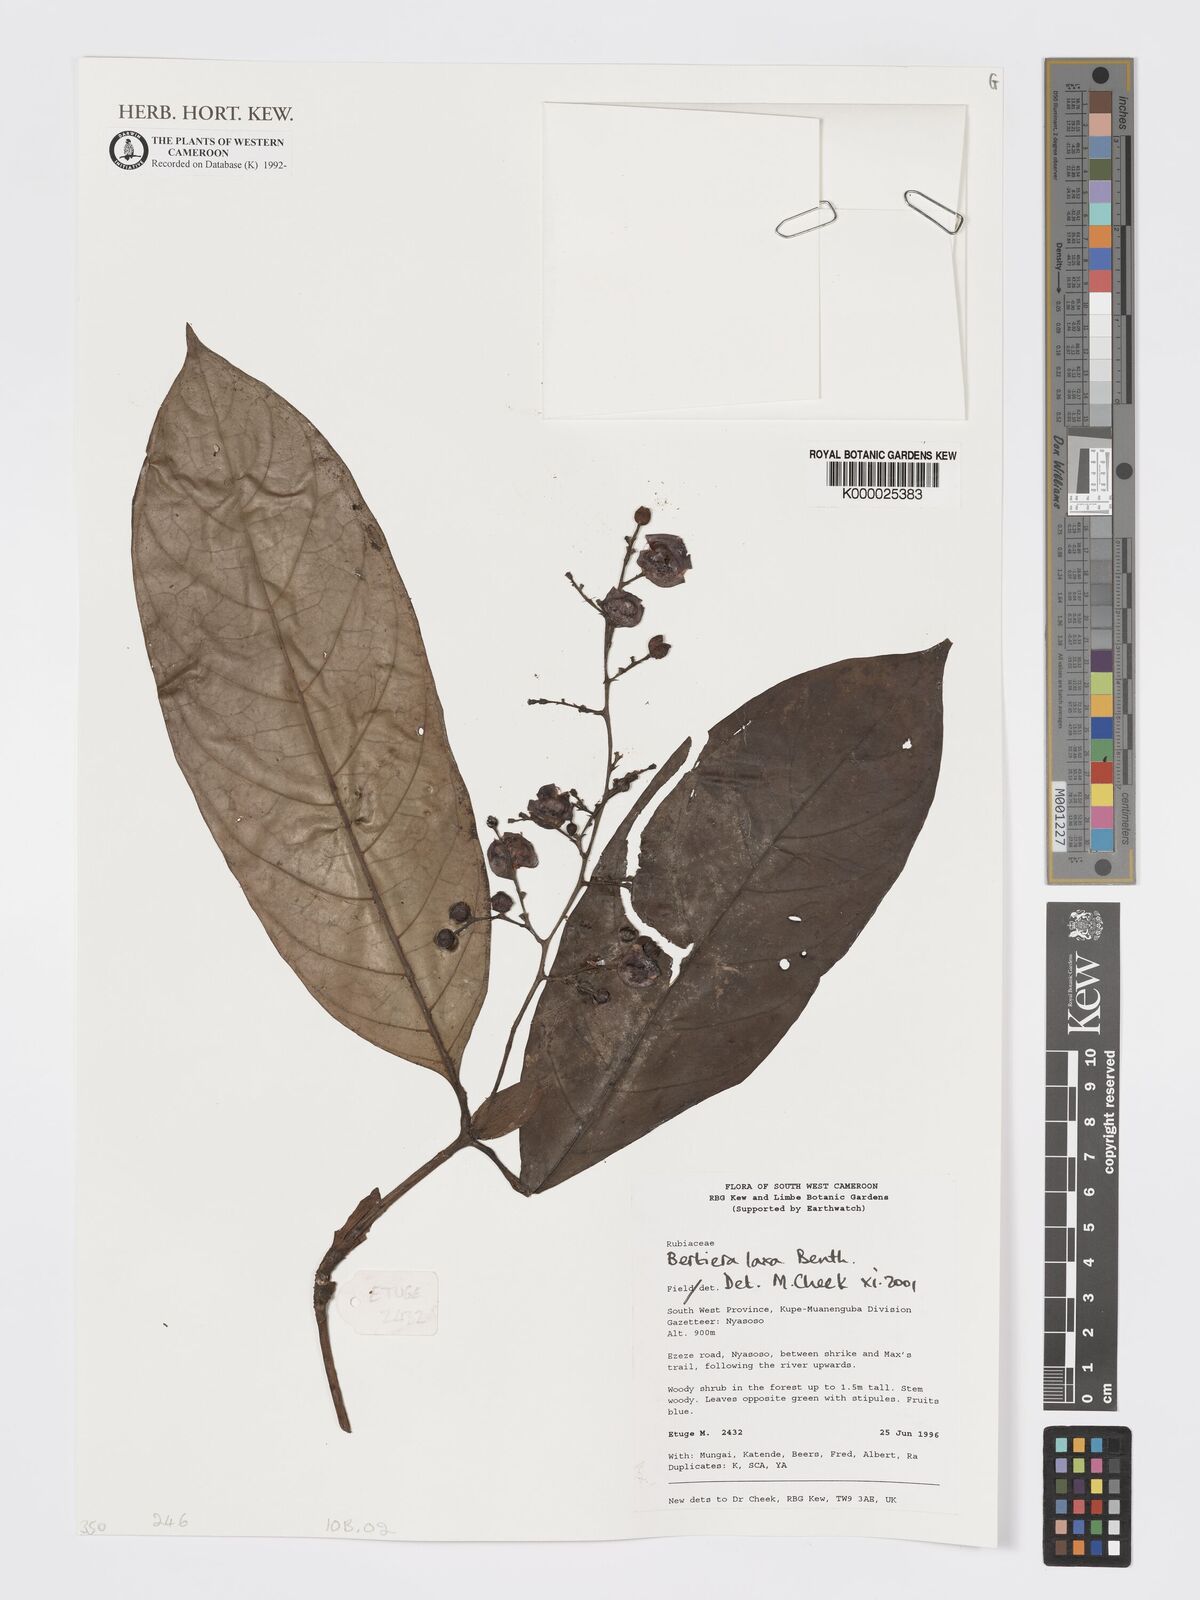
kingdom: Plantae
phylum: Tracheophyta
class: Magnoliopsida
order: Gentianales
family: Rubiaceae
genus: Bertiera
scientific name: Bertiera laxa
